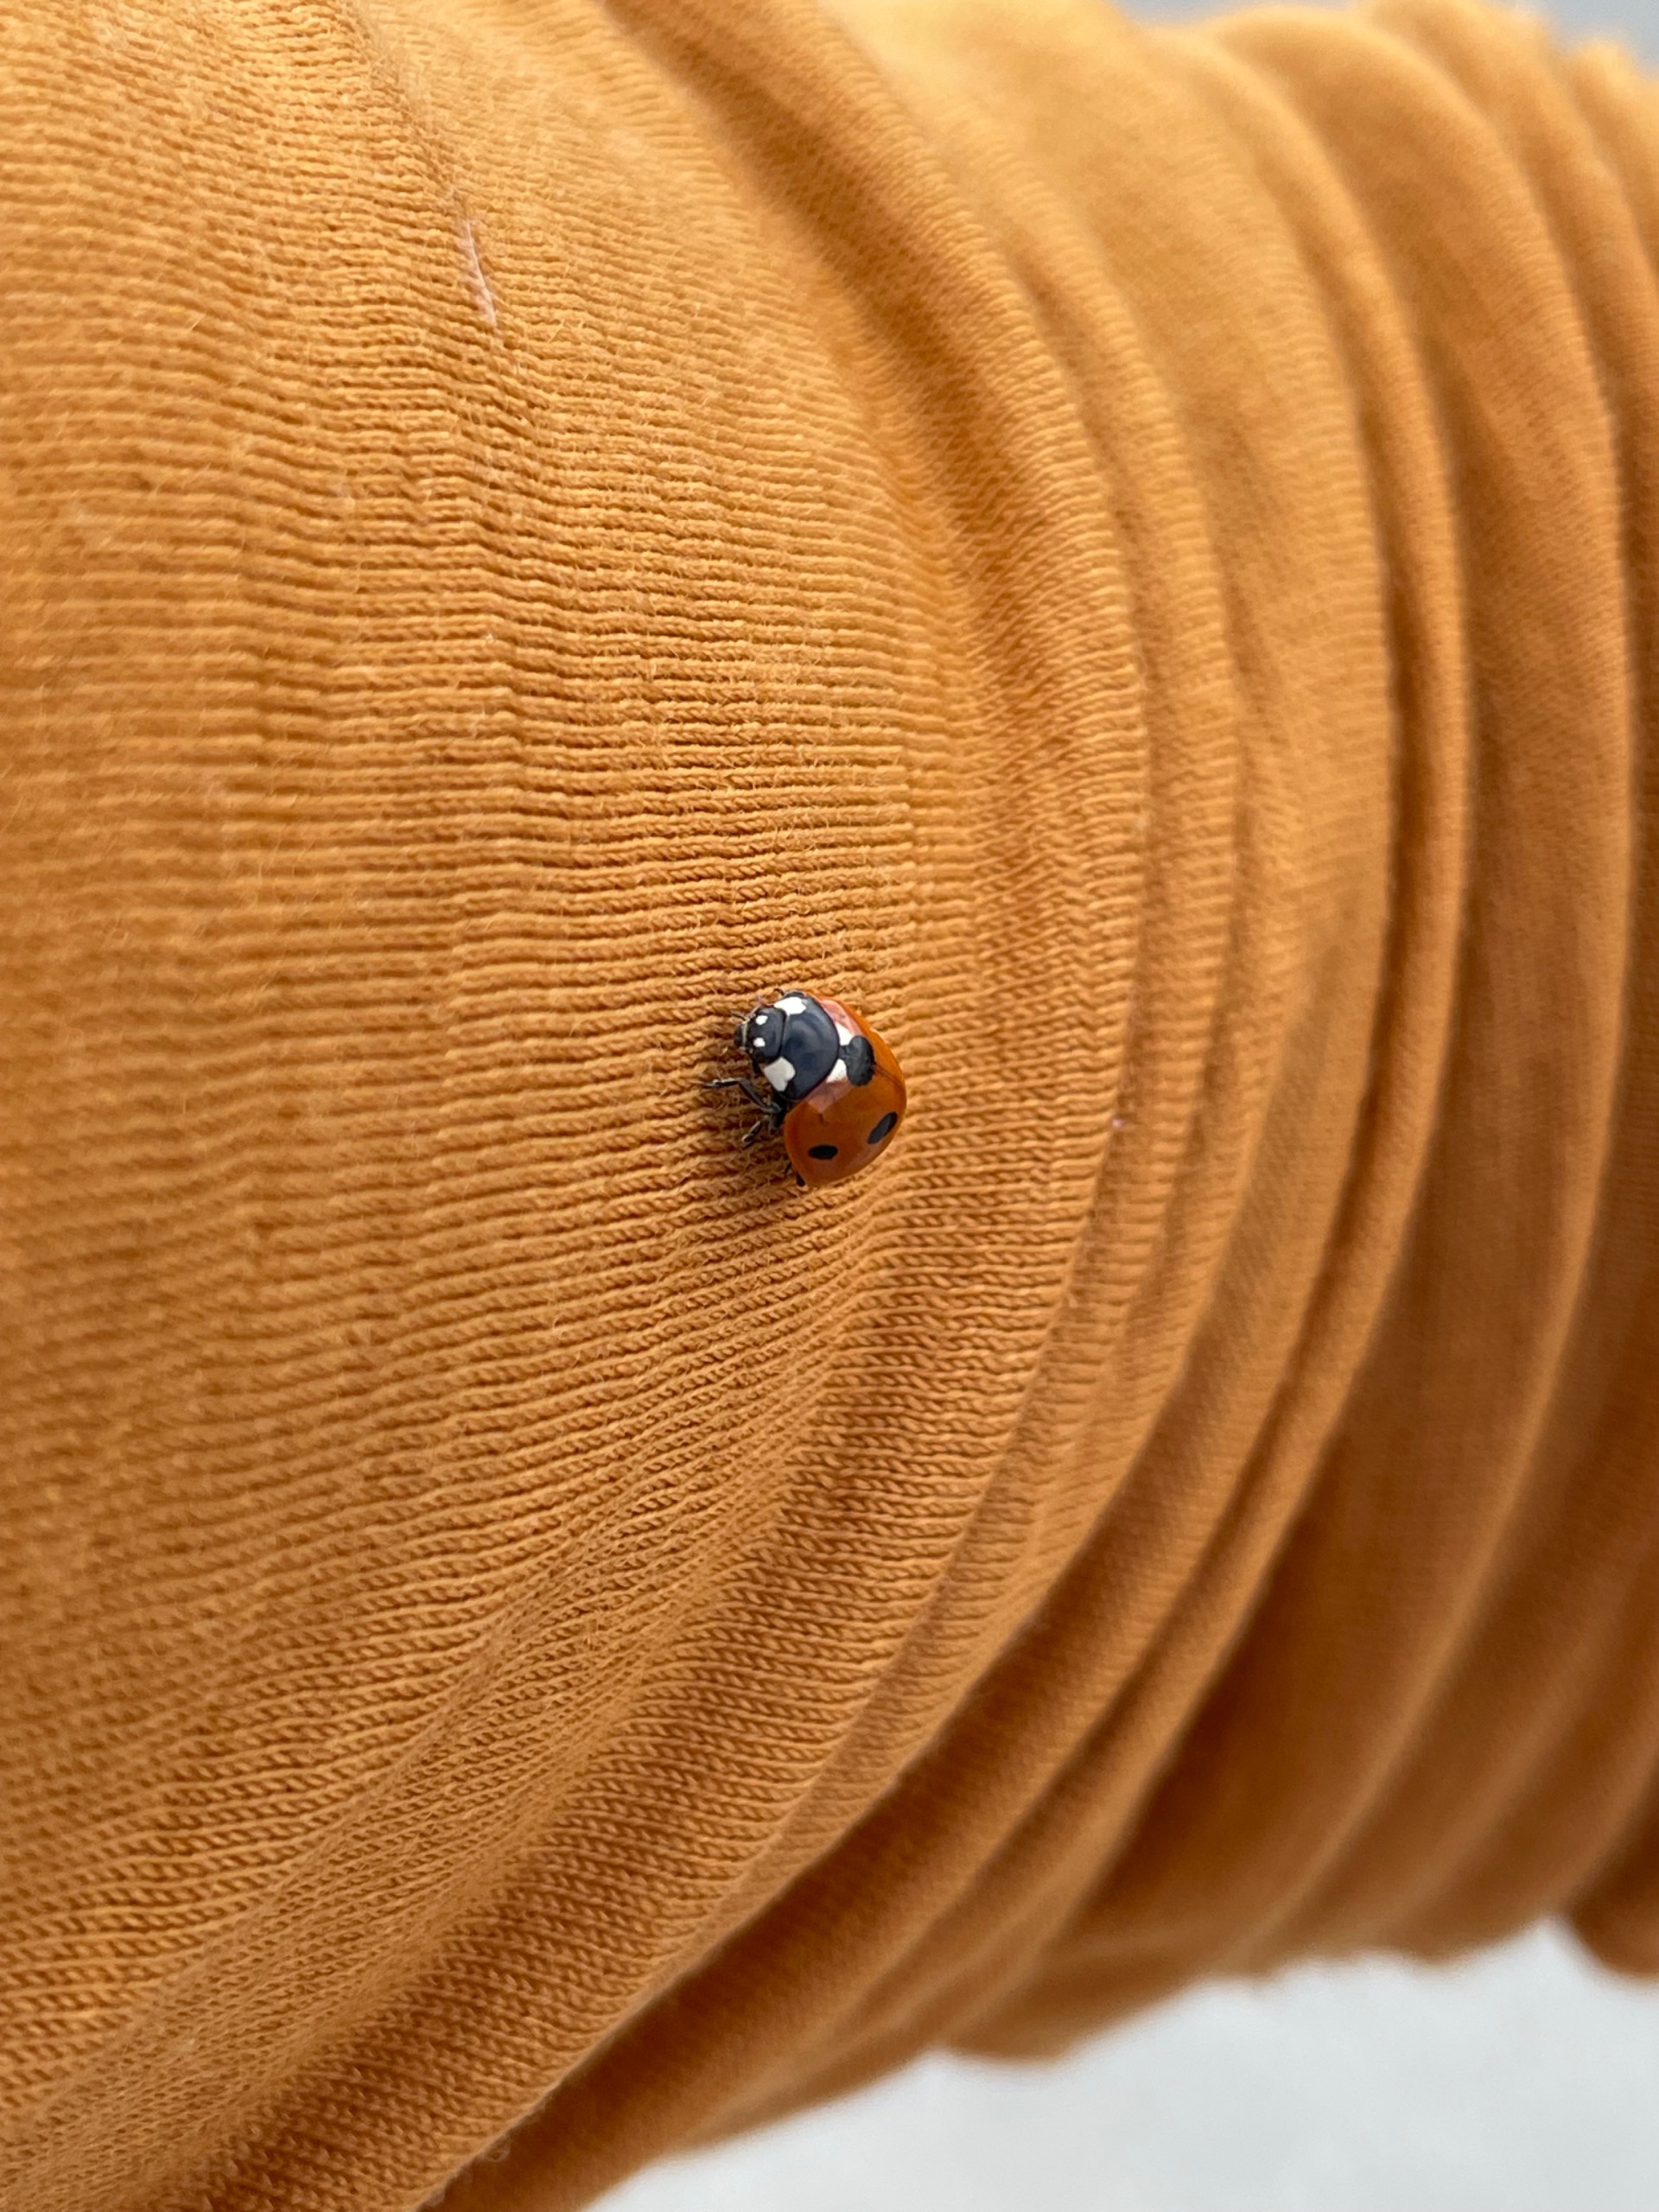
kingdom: Animalia
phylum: Arthropoda
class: Insecta
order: Coleoptera
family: Coccinellidae
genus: Coccinella
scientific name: Coccinella septempunctata
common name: Syvplettet mariehøne
